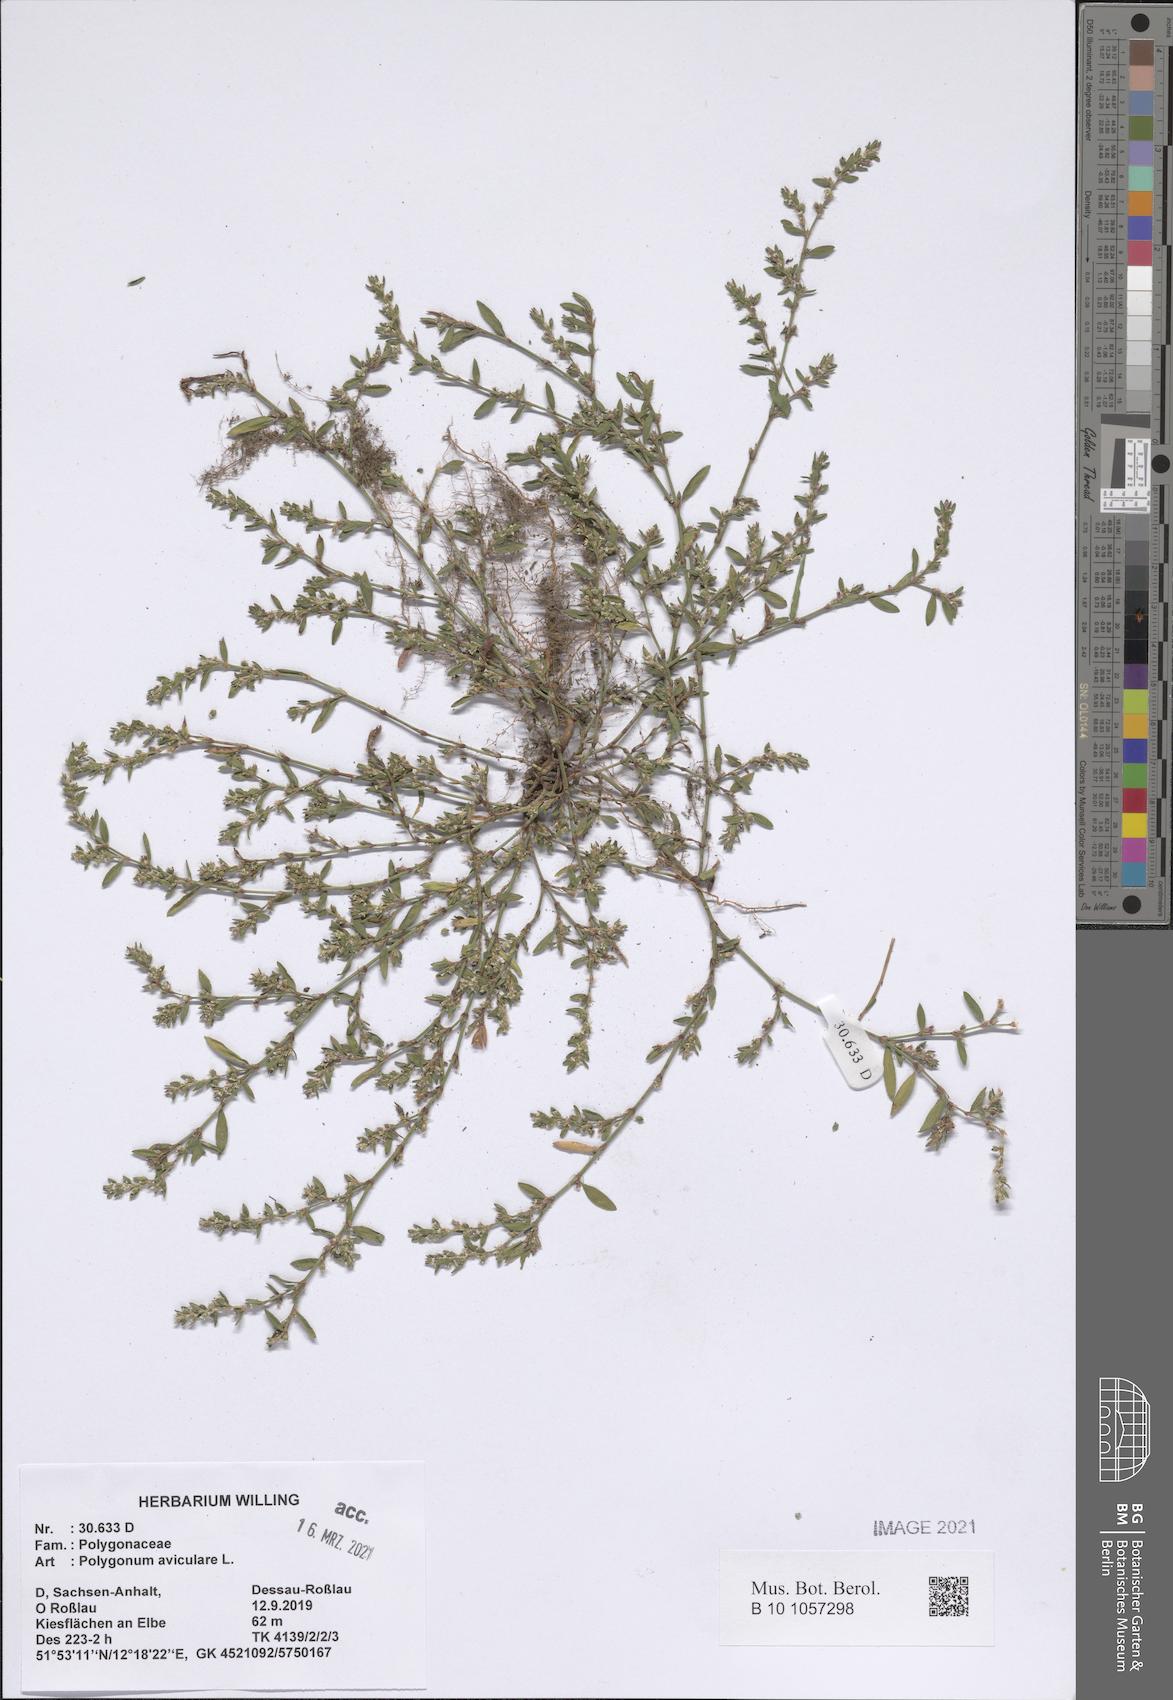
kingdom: Plantae
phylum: Tracheophyta
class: Magnoliopsida
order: Caryophyllales
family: Polygonaceae
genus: Polygonum
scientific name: Polygonum aviculare
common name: Prostrate knotweed
